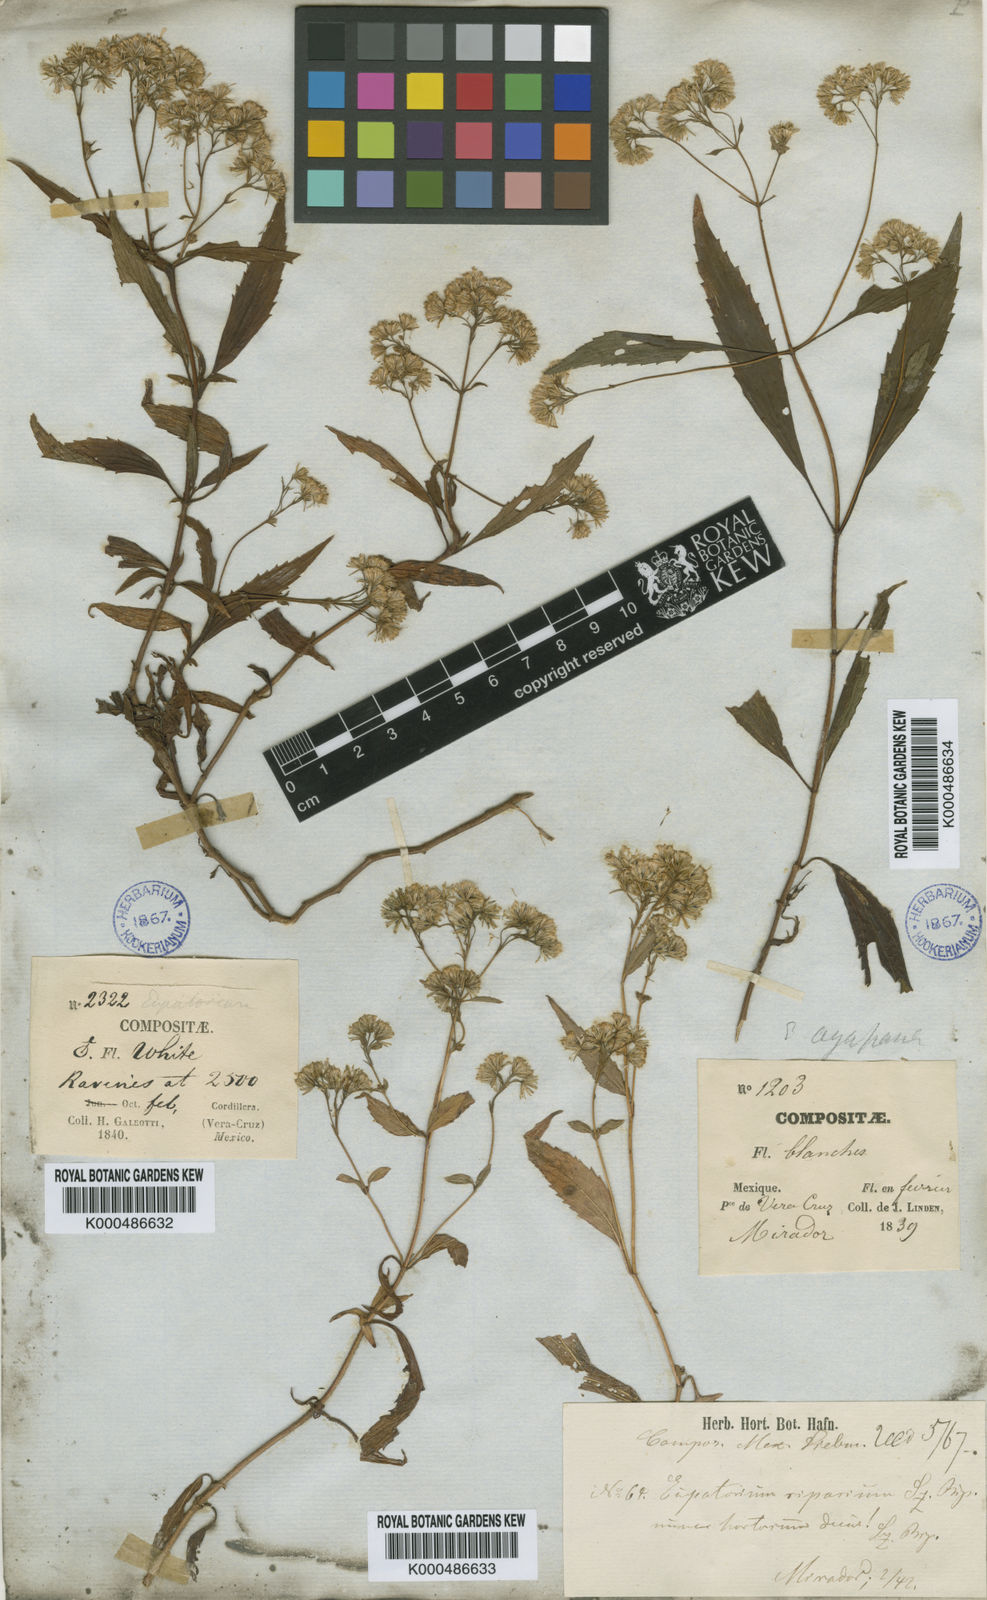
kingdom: Plantae
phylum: Tracheophyta
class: Magnoliopsida
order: Asterales
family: Asteraceae
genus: Ayapana
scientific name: Ayapana
